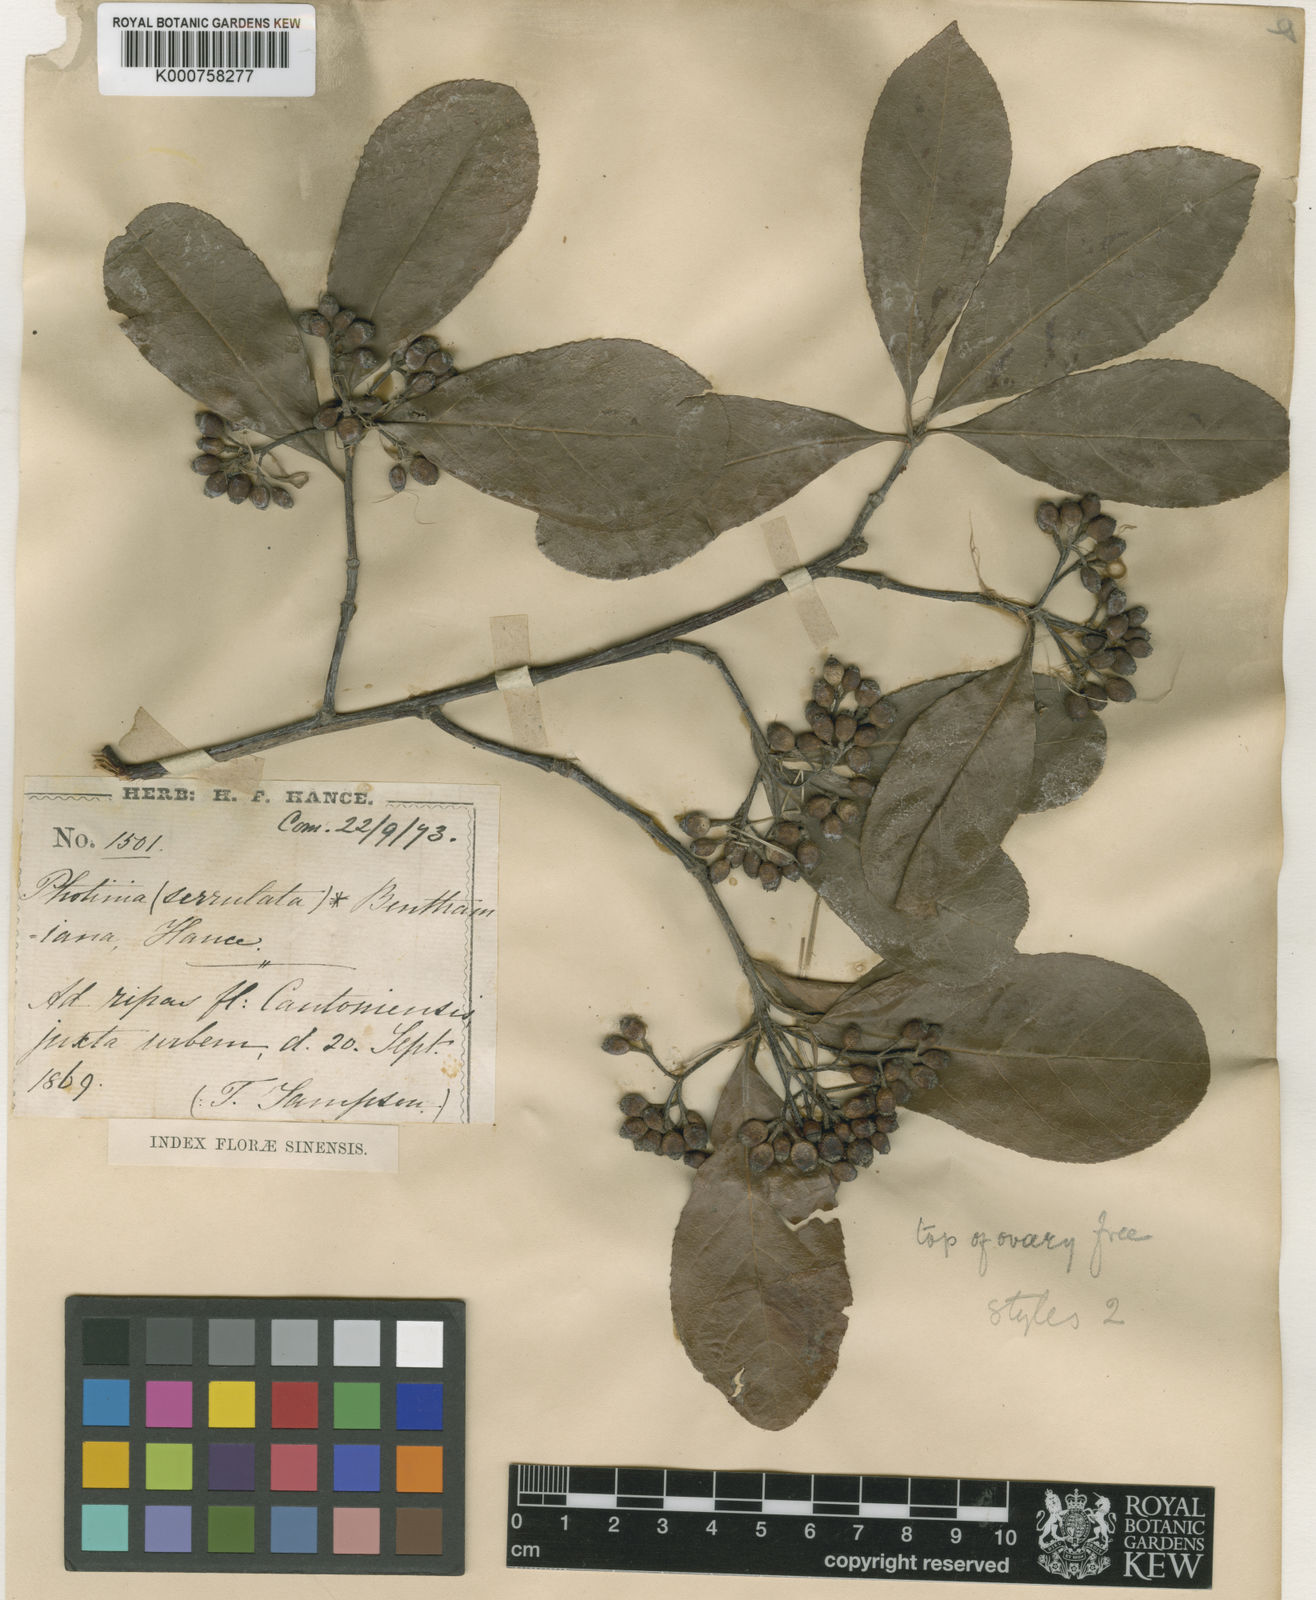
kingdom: Plantae
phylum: Tracheophyta
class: Magnoliopsida
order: Rosales
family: Rosaceae
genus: Pourthiaea
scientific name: Pourthiaea benthamiana
